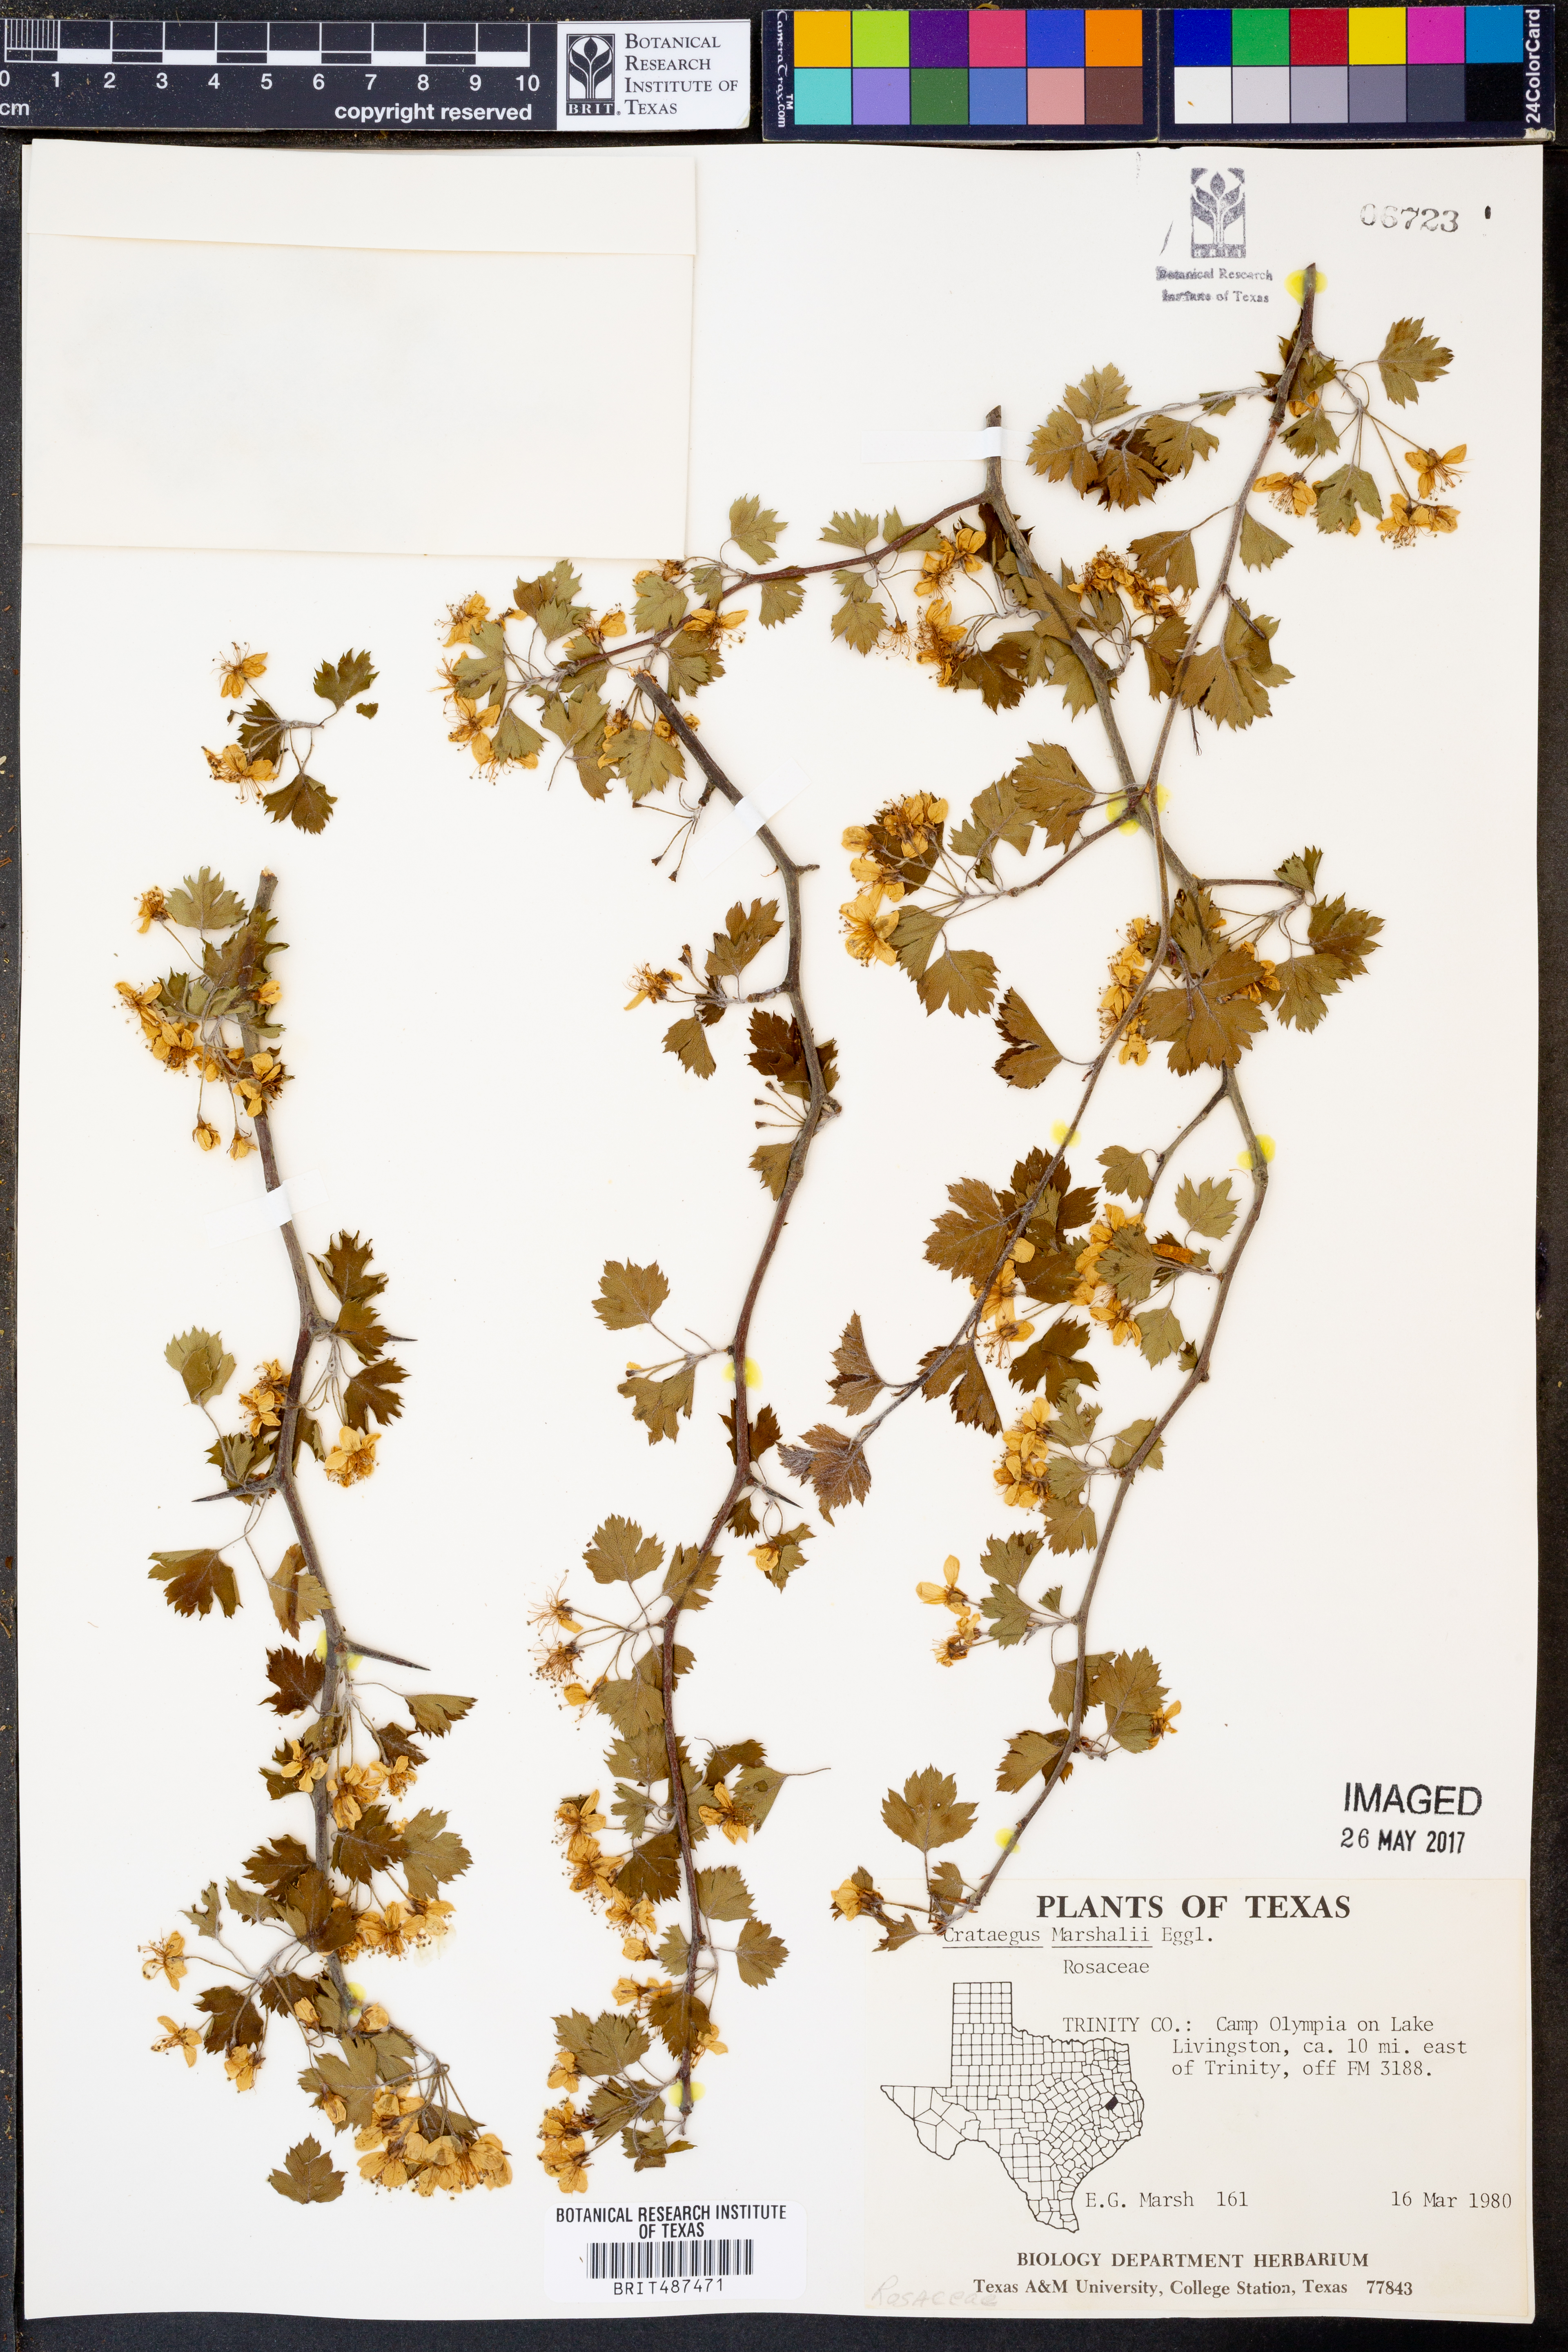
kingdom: Plantae
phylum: Tracheophyta
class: Magnoliopsida
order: Rosales
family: Rosaceae
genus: Crataegus
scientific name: Crataegus marshallii
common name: Parsley-hawthorn
